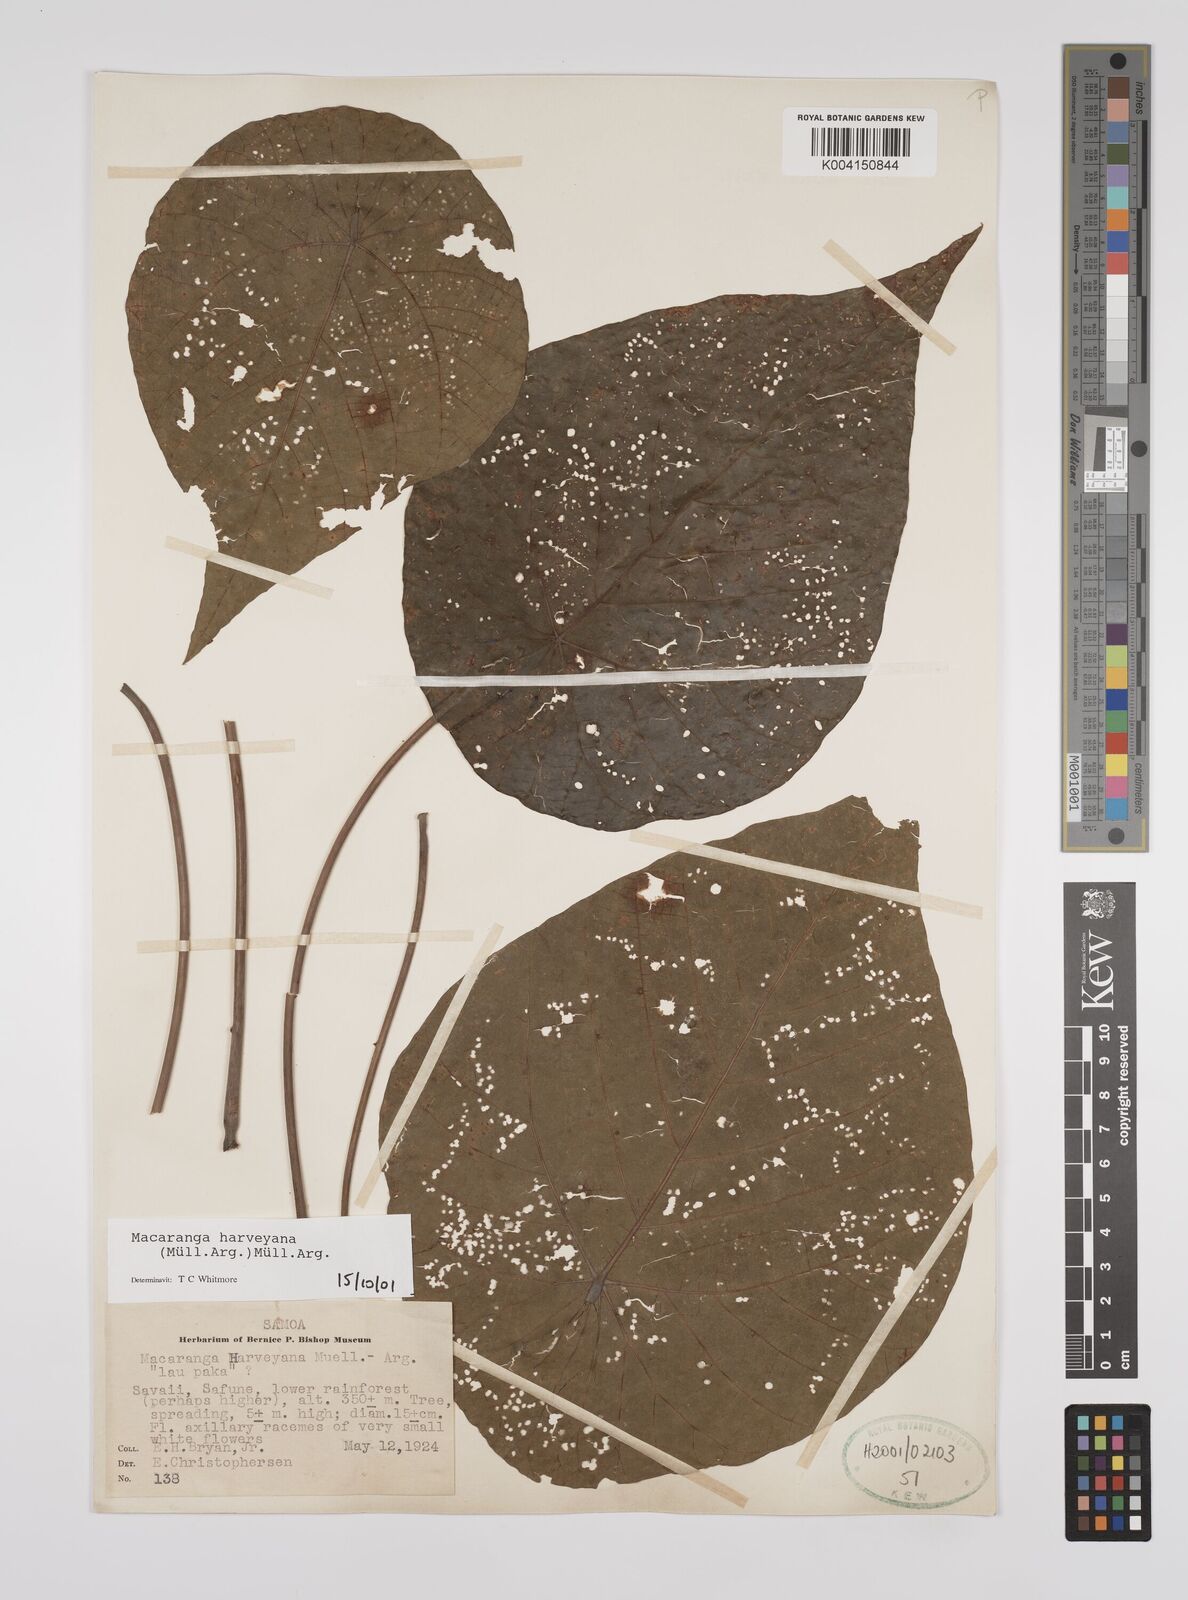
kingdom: Plantae
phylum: Tracheophyta
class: Magnoliopsida
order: Malpighiales
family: Euphorbiaceae
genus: Macaranga
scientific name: Macaranga harveyana
